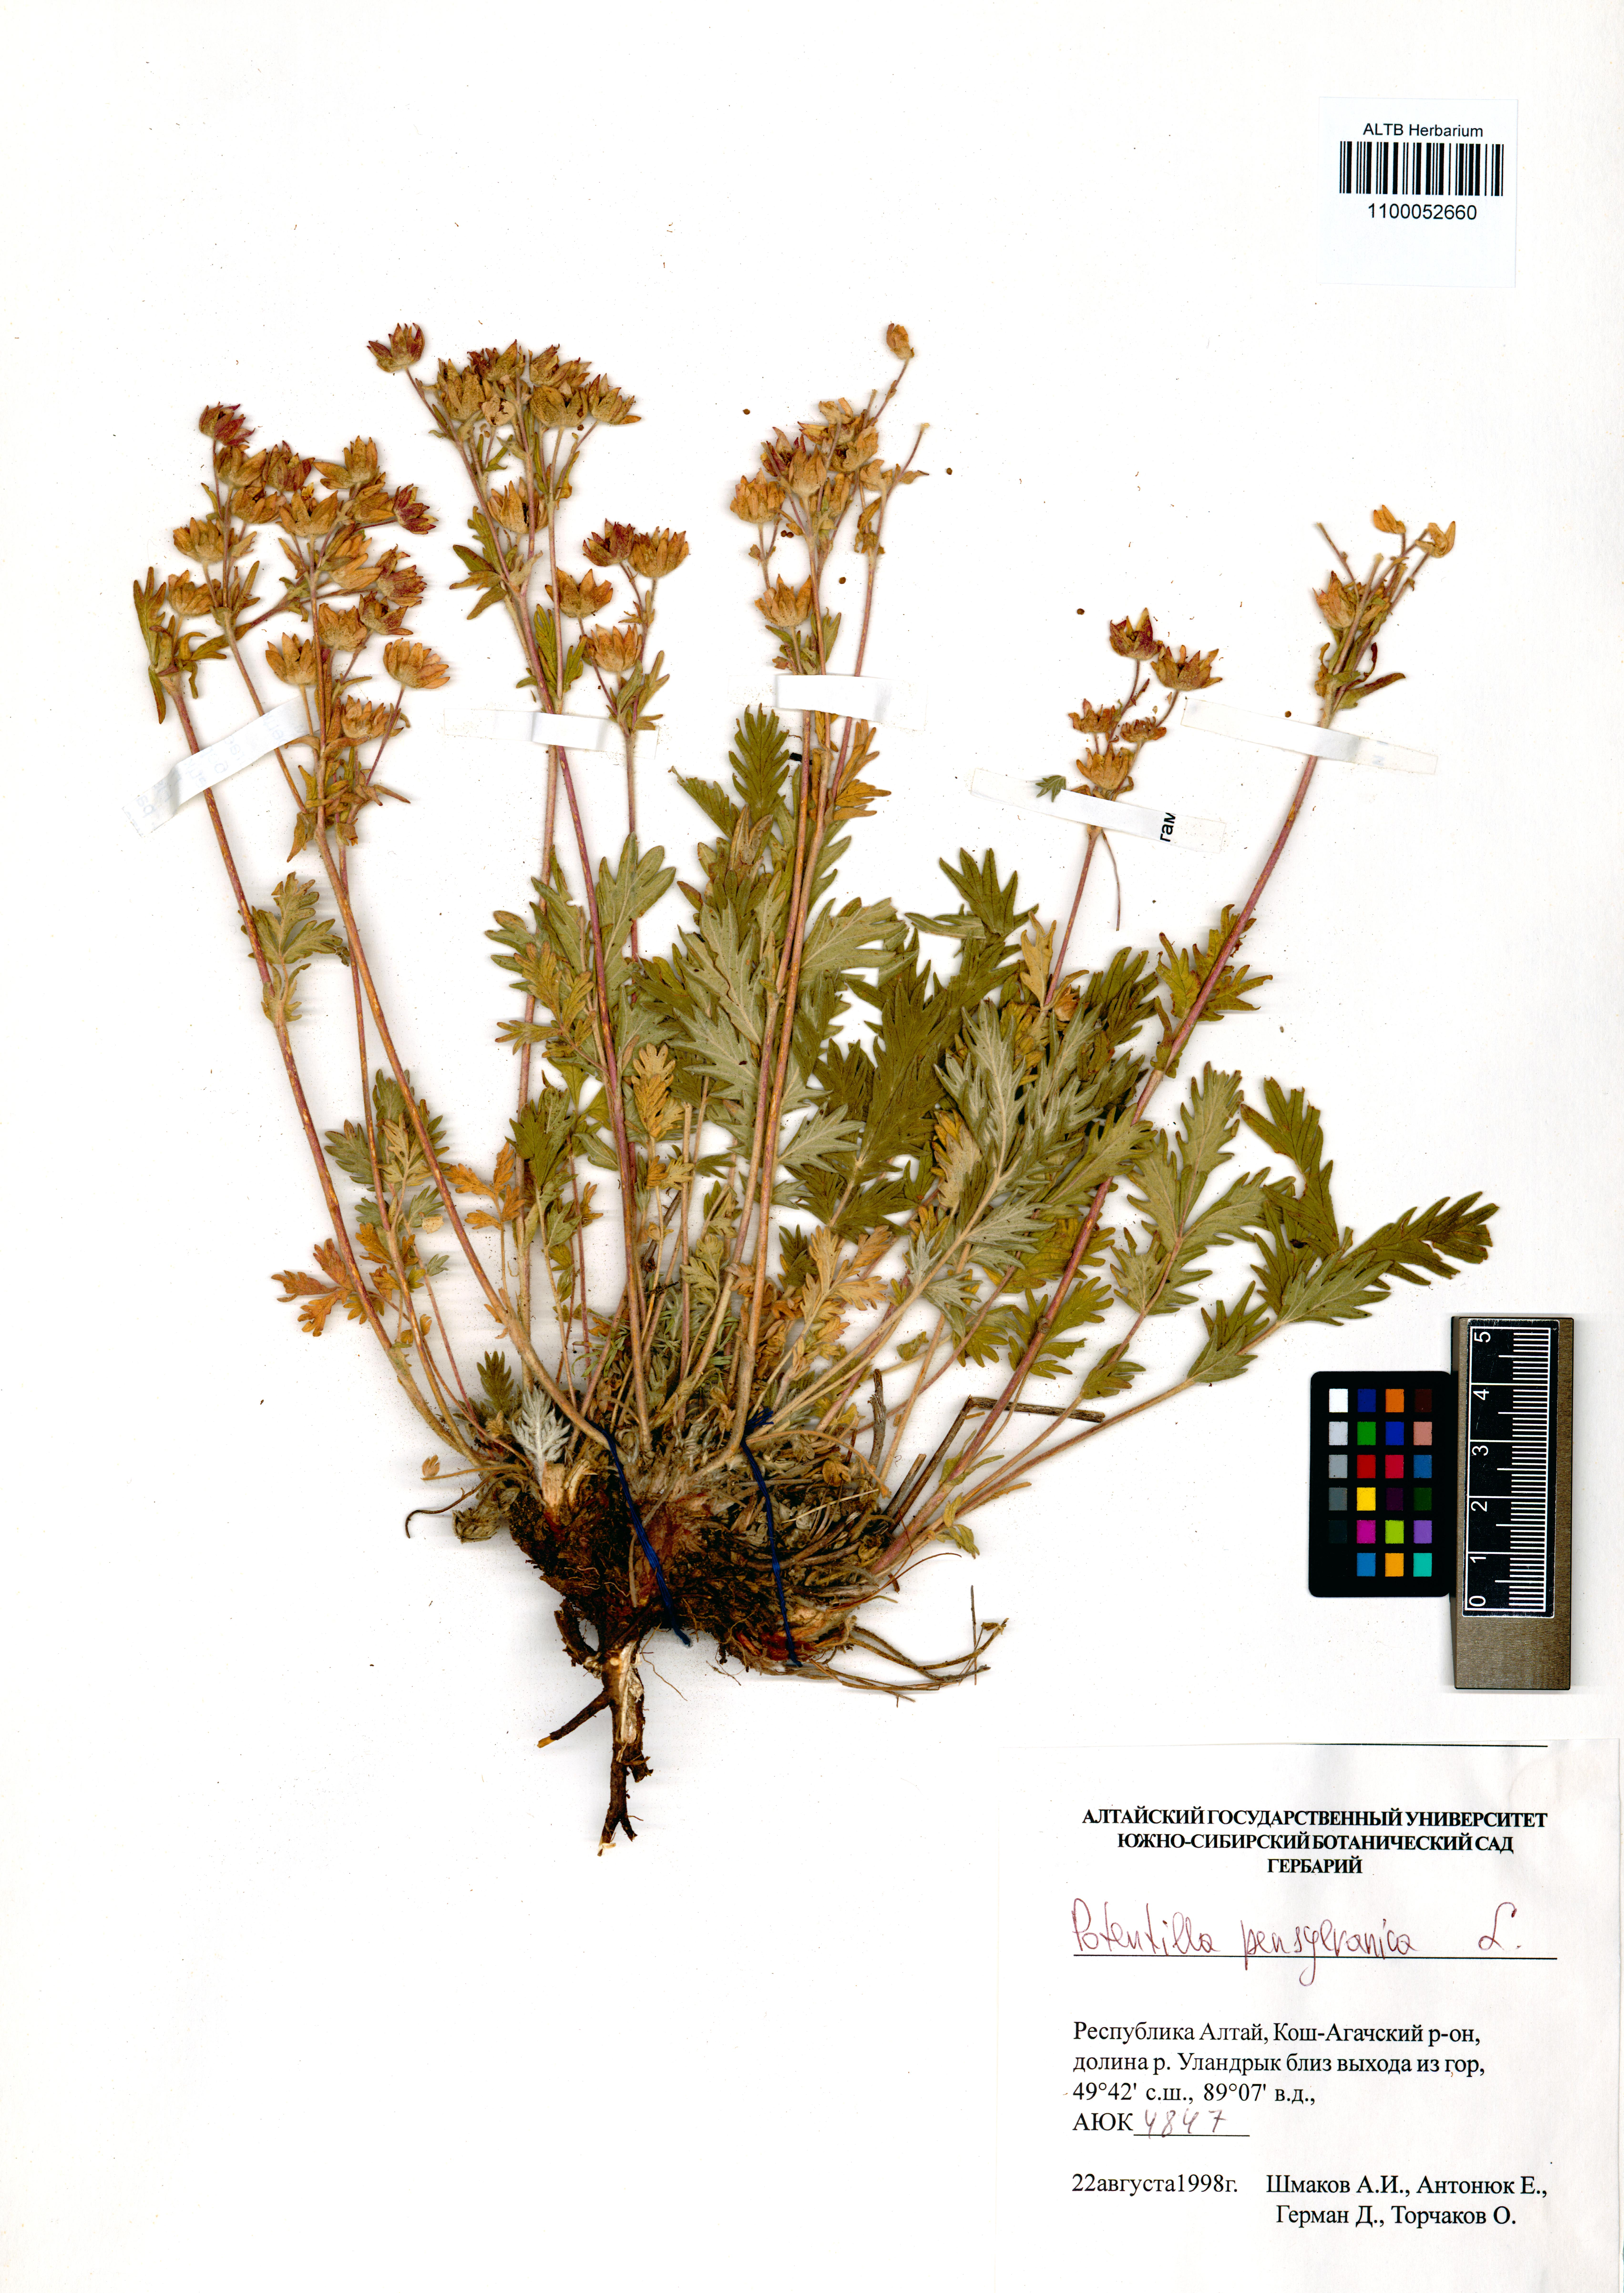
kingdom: Plantae
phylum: Tracheophyta
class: Magnoliopsida
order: Rosales
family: Rosaceae
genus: Potentilla
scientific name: Potentilla pensylvanica
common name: Pennsylvania cinquefoil
